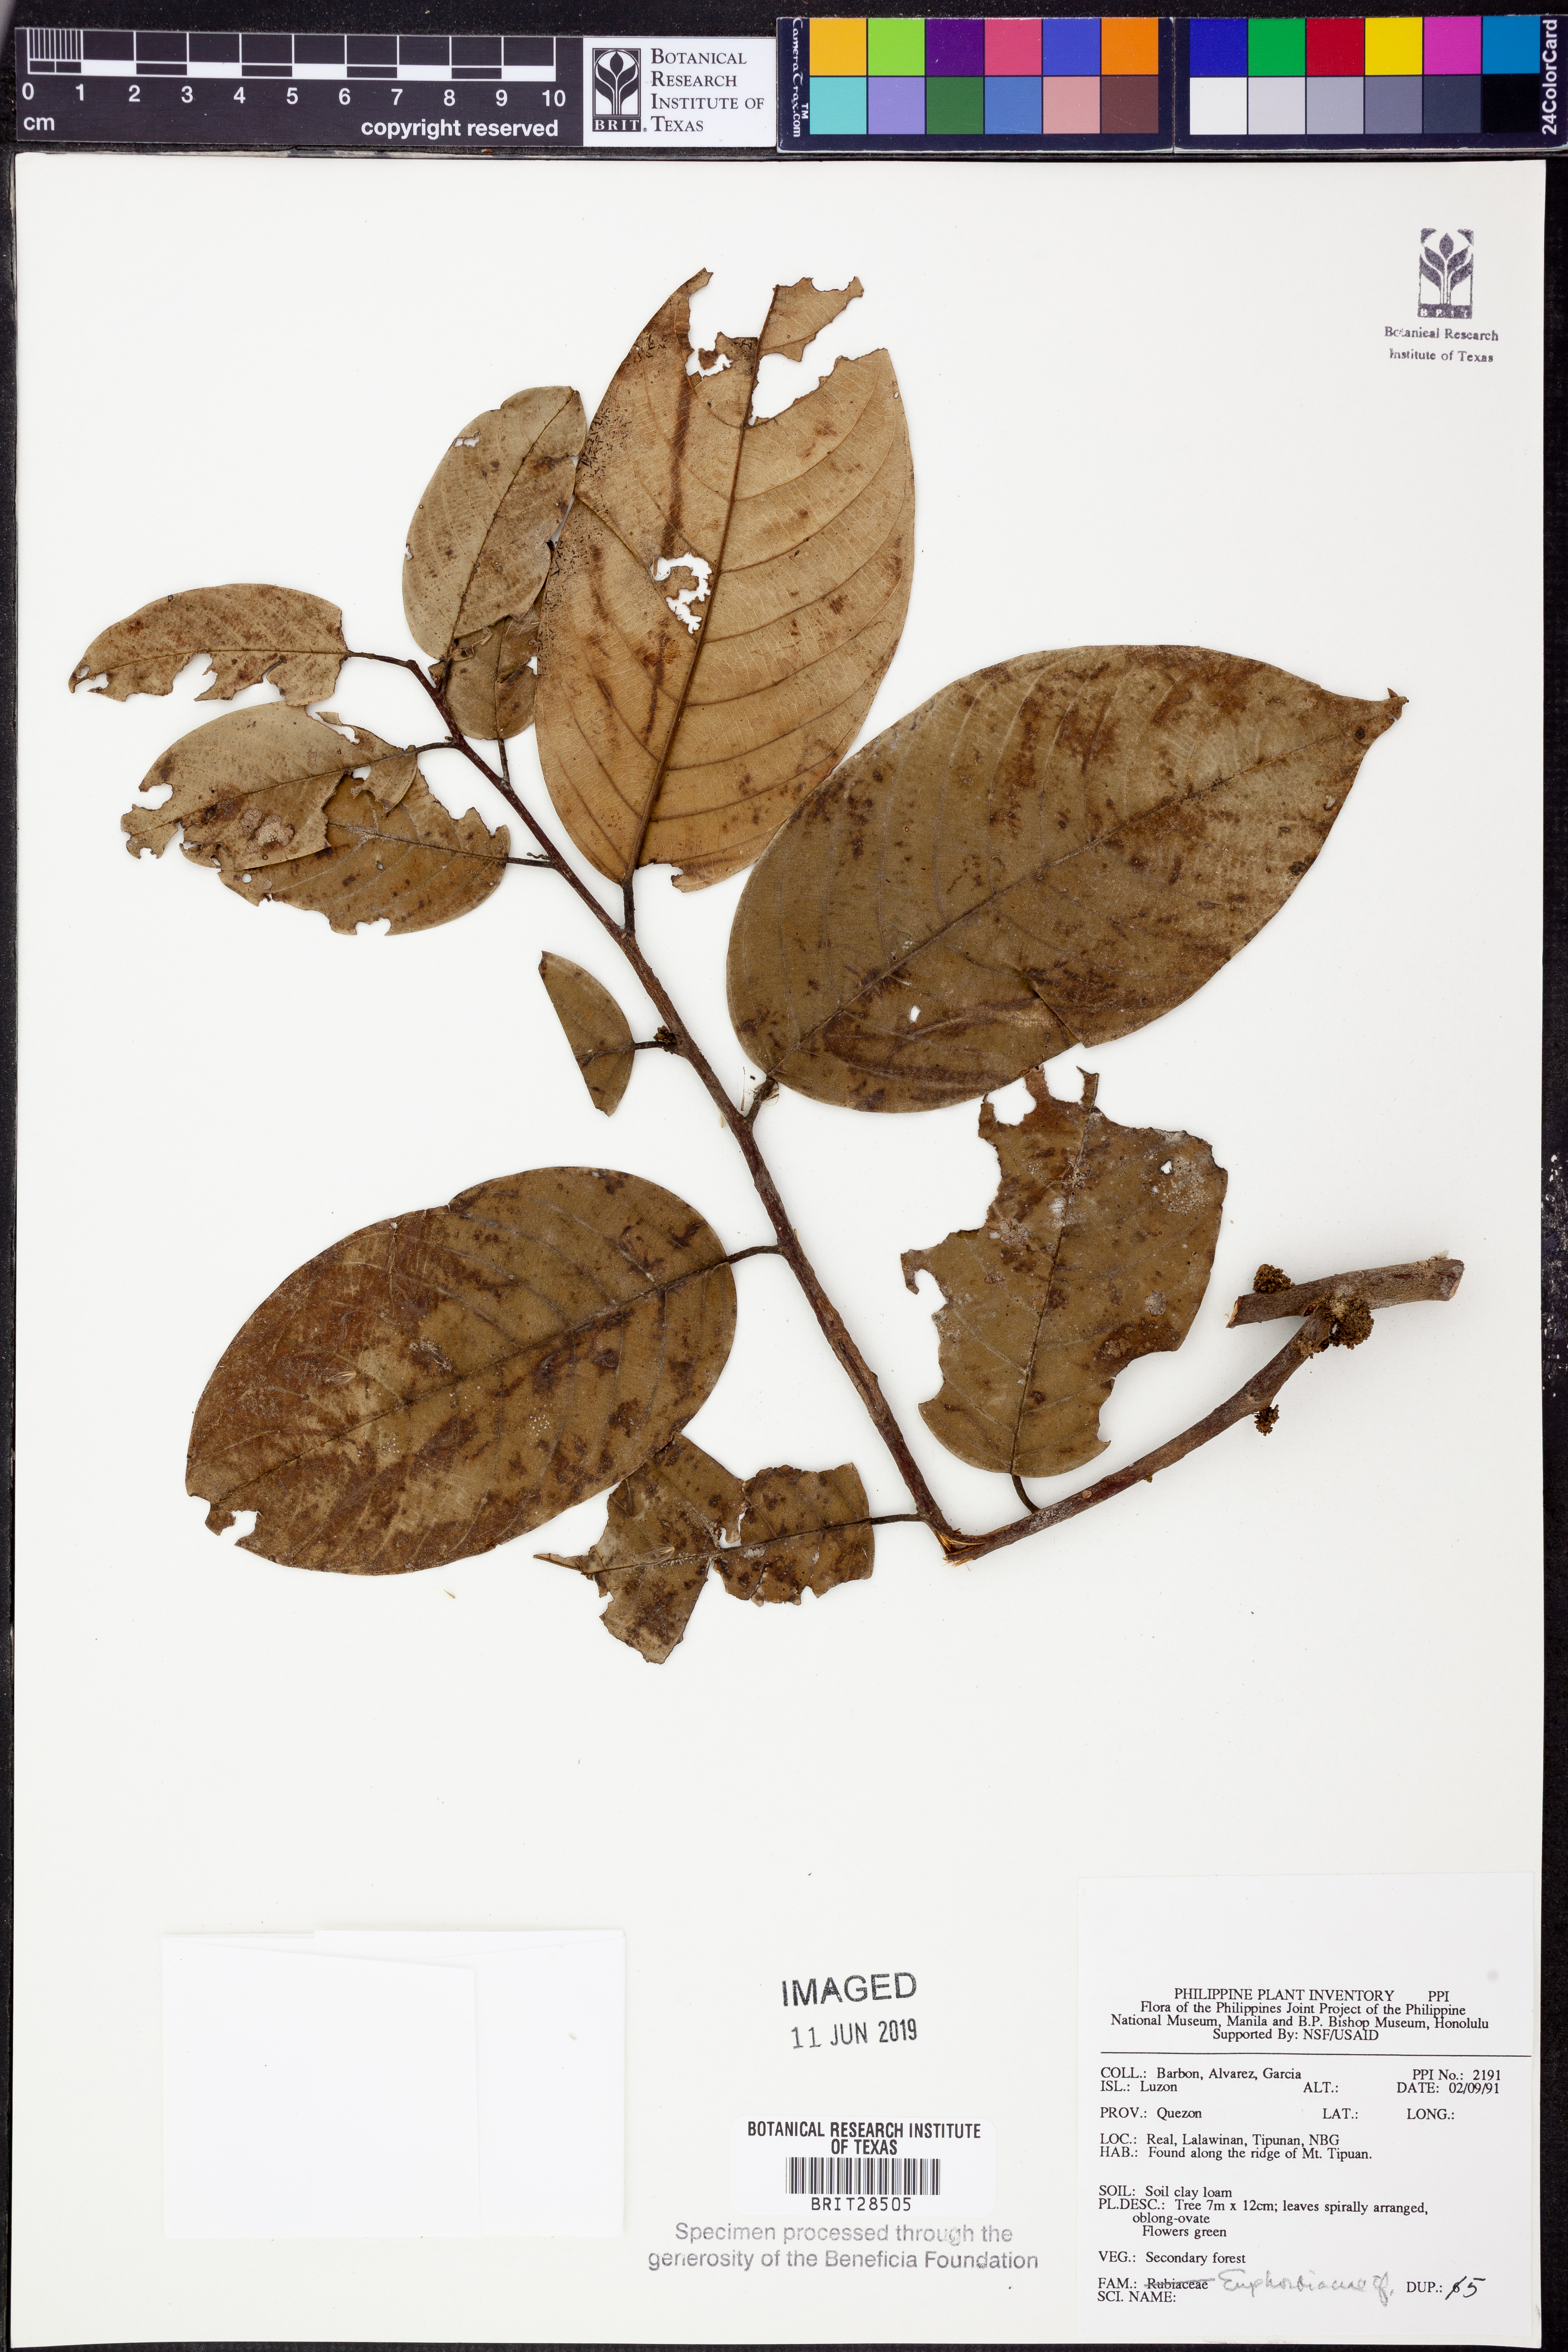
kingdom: Plantae
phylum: Tracheophyta
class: Magnoliopsida
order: Malpighiales
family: Euphorbiaceae
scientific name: Euphorbiaceae
